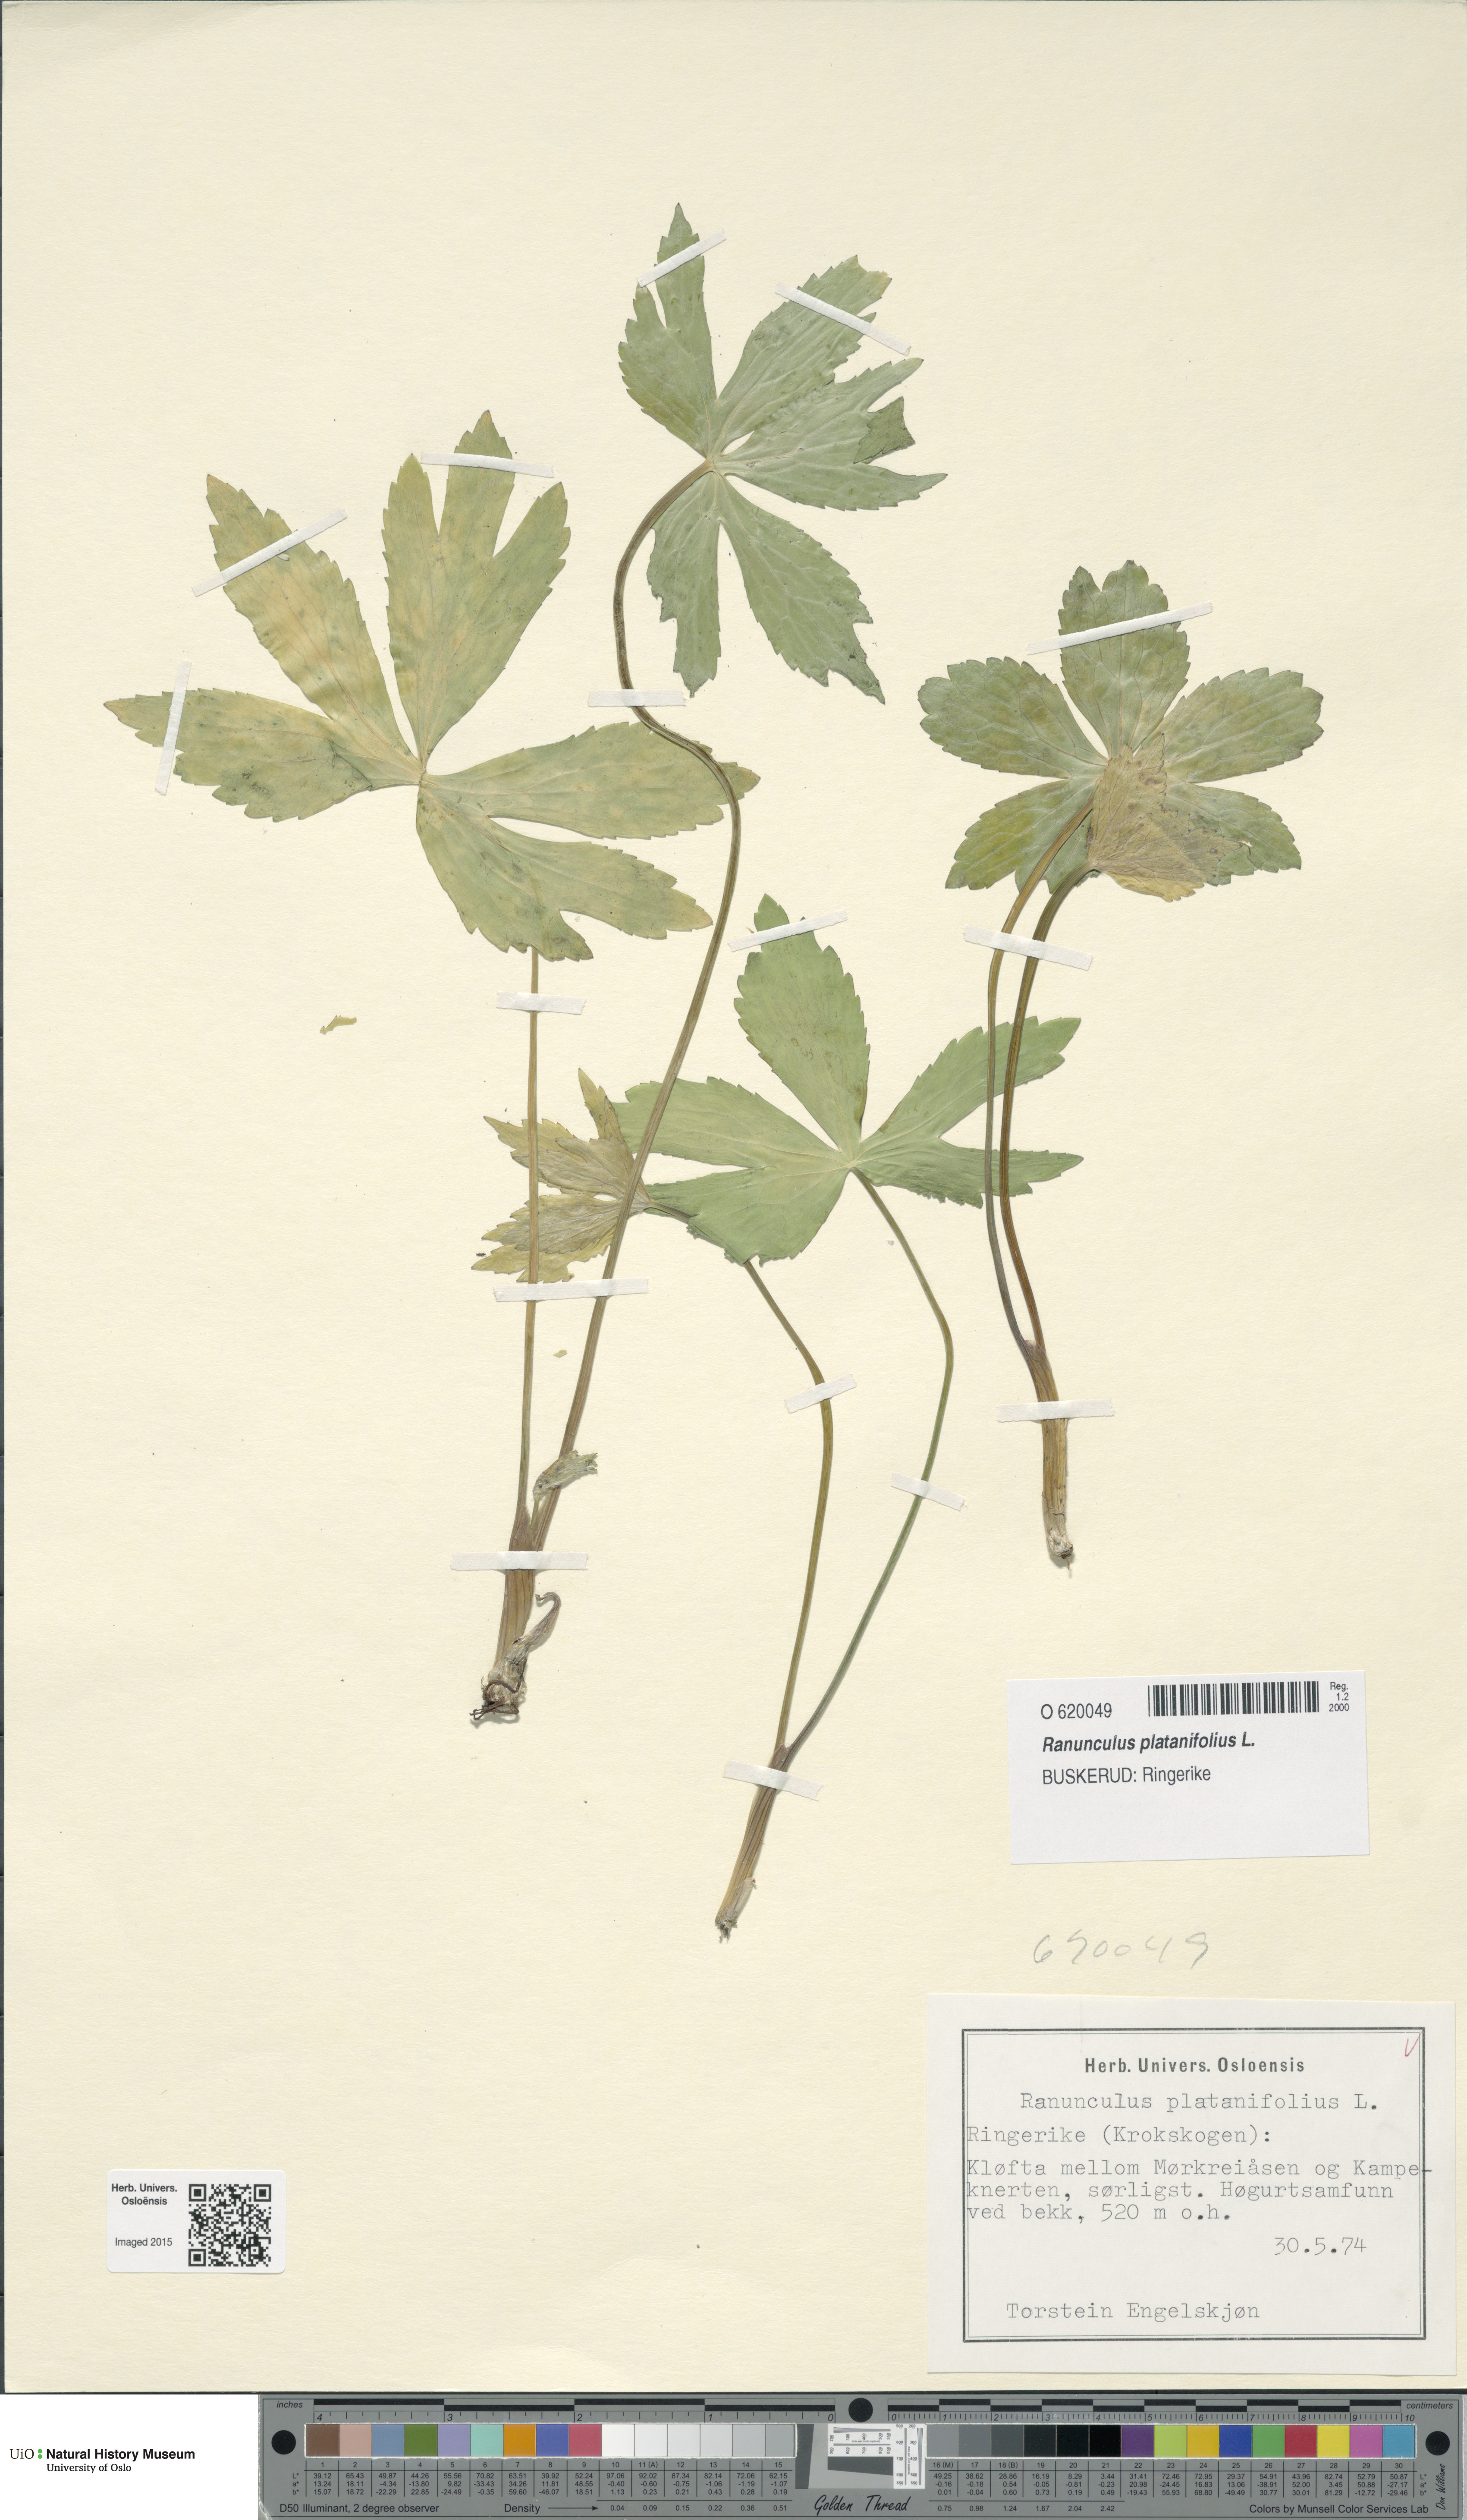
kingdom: Plantae
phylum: Tracheophyta
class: Magnoliopsida
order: Ranunculales
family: Ranunculaceae
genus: Ranunculus
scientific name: Ranunculus platanifolius
